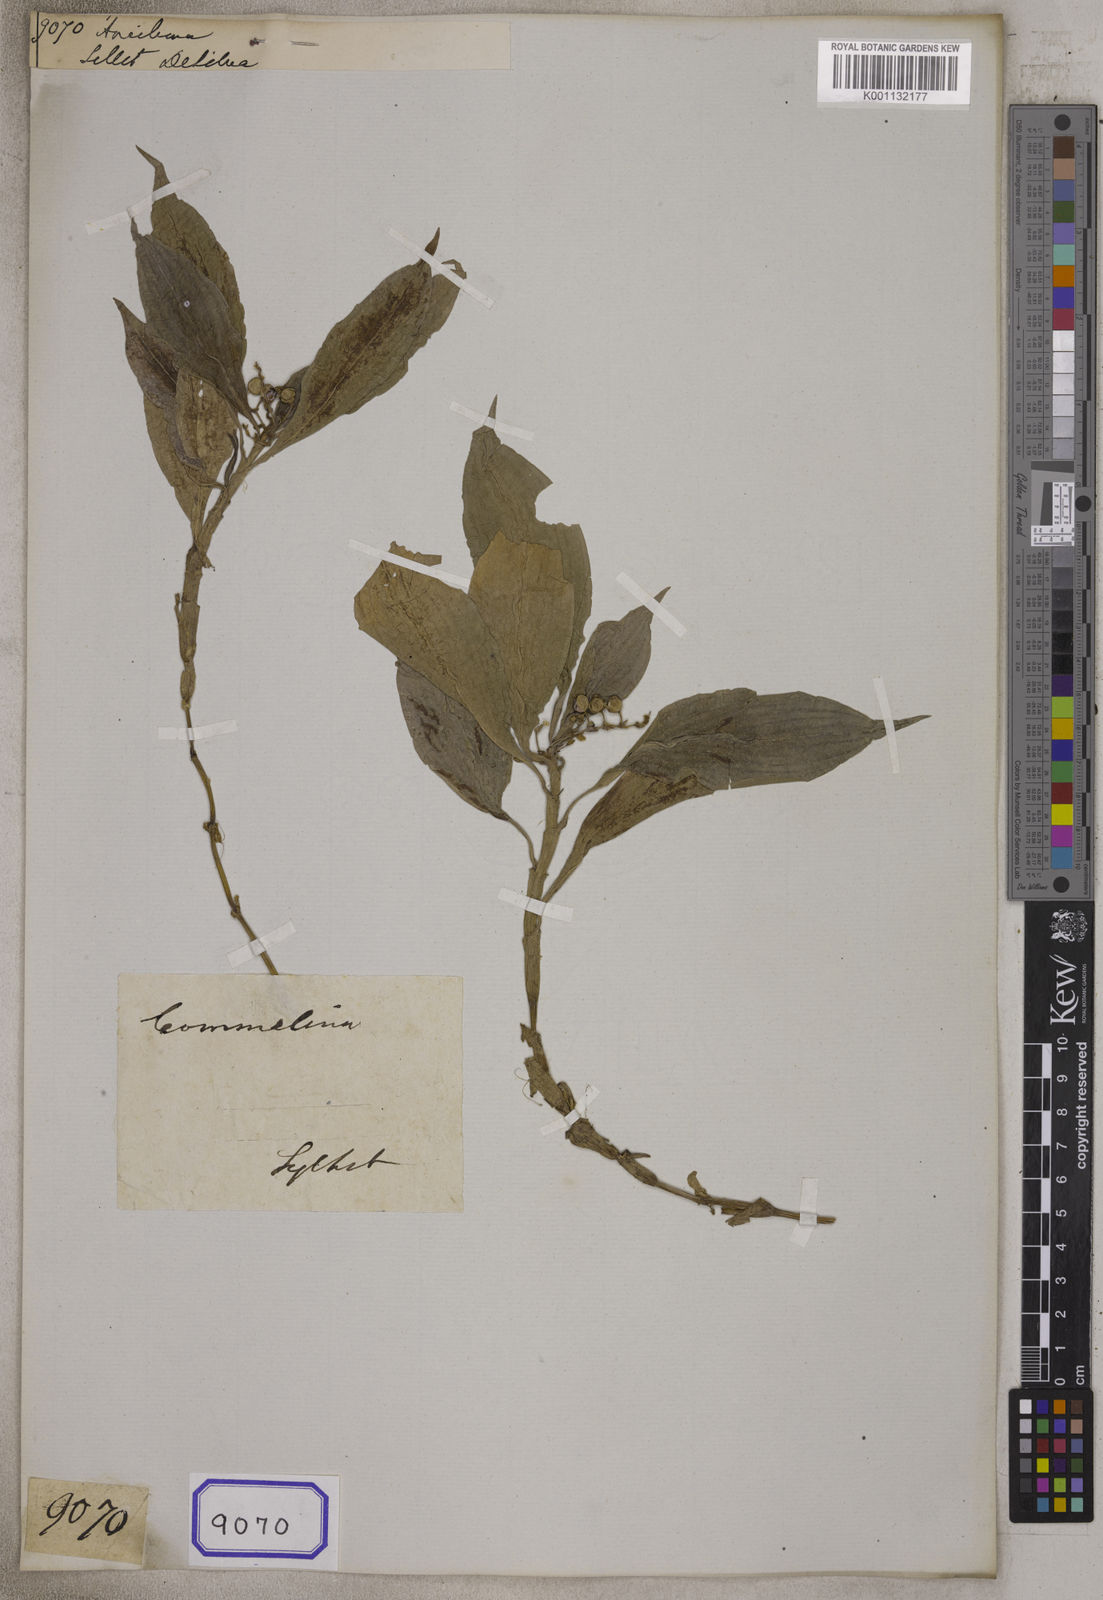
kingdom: Plantae
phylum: Tracheophyta
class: Liliopsida
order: Commelinales
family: Commelinaceae
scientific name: Commelinaceae
